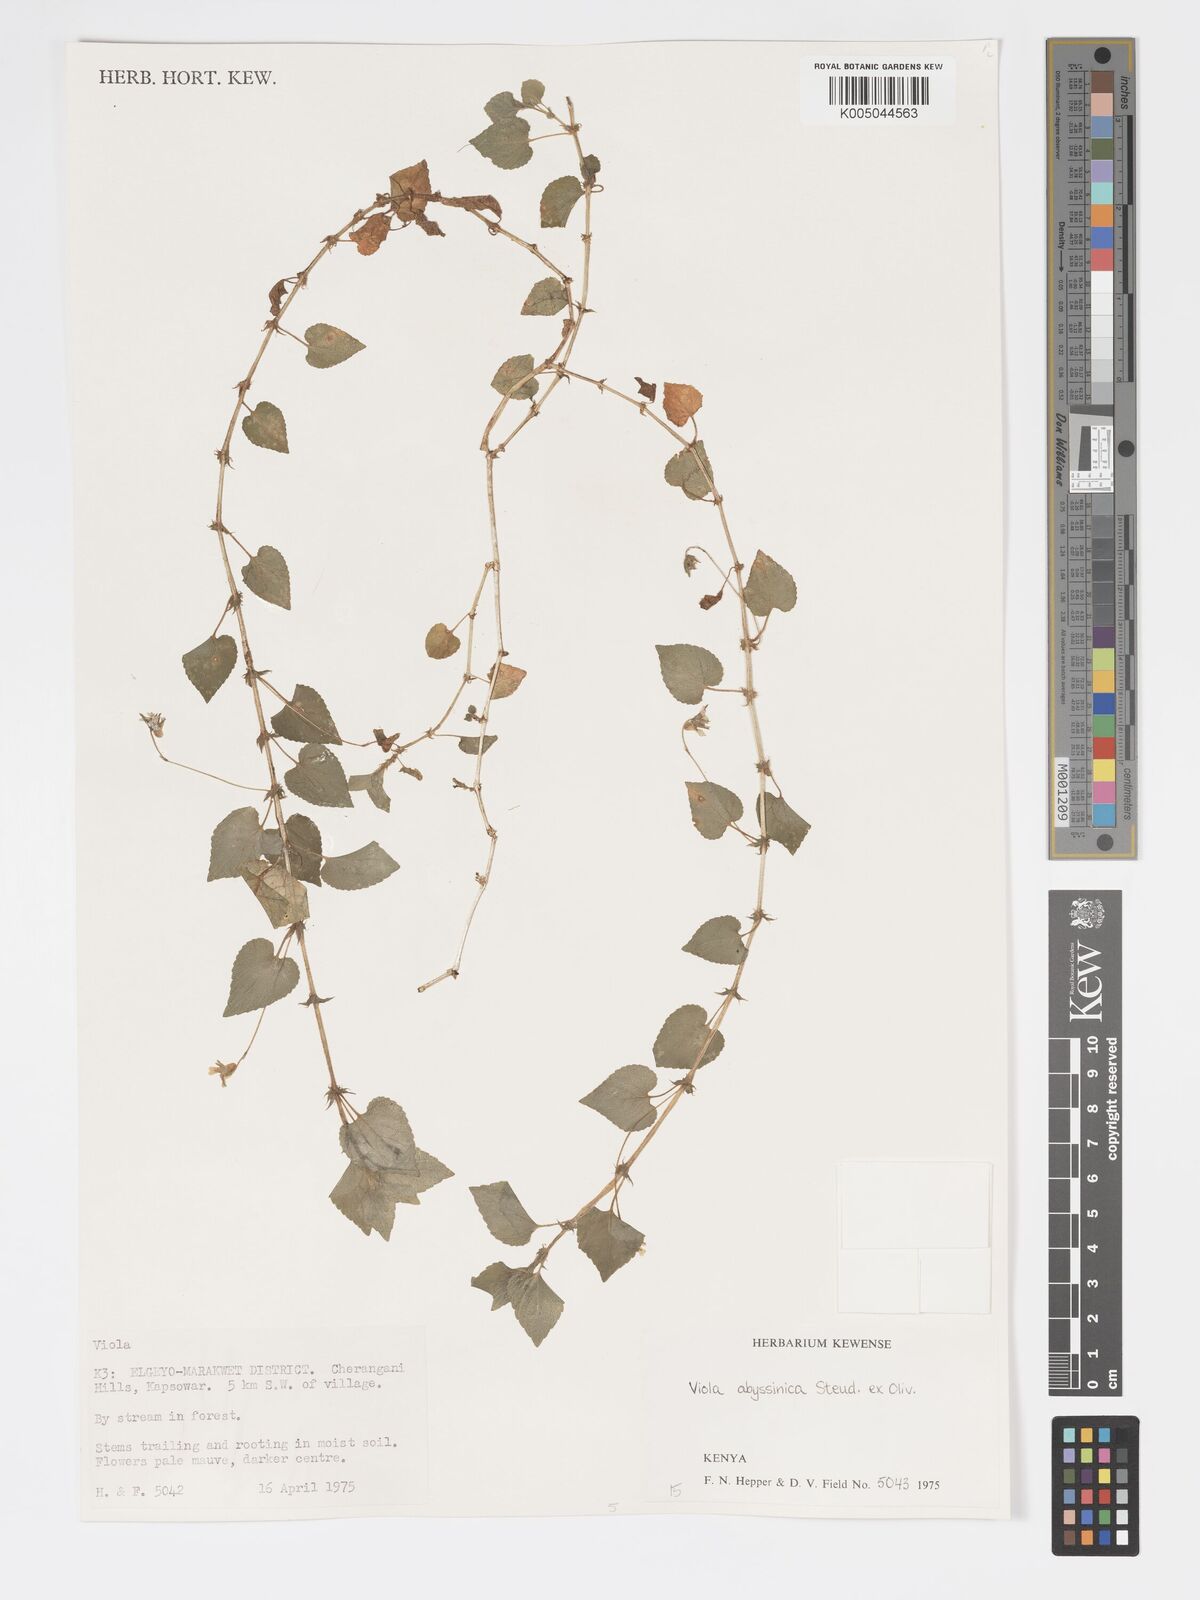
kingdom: Plantae
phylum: Tracheophyta
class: Magnoliopsida
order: Malpighiales
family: Violaceae
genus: Viola
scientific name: Viola abyssinica
